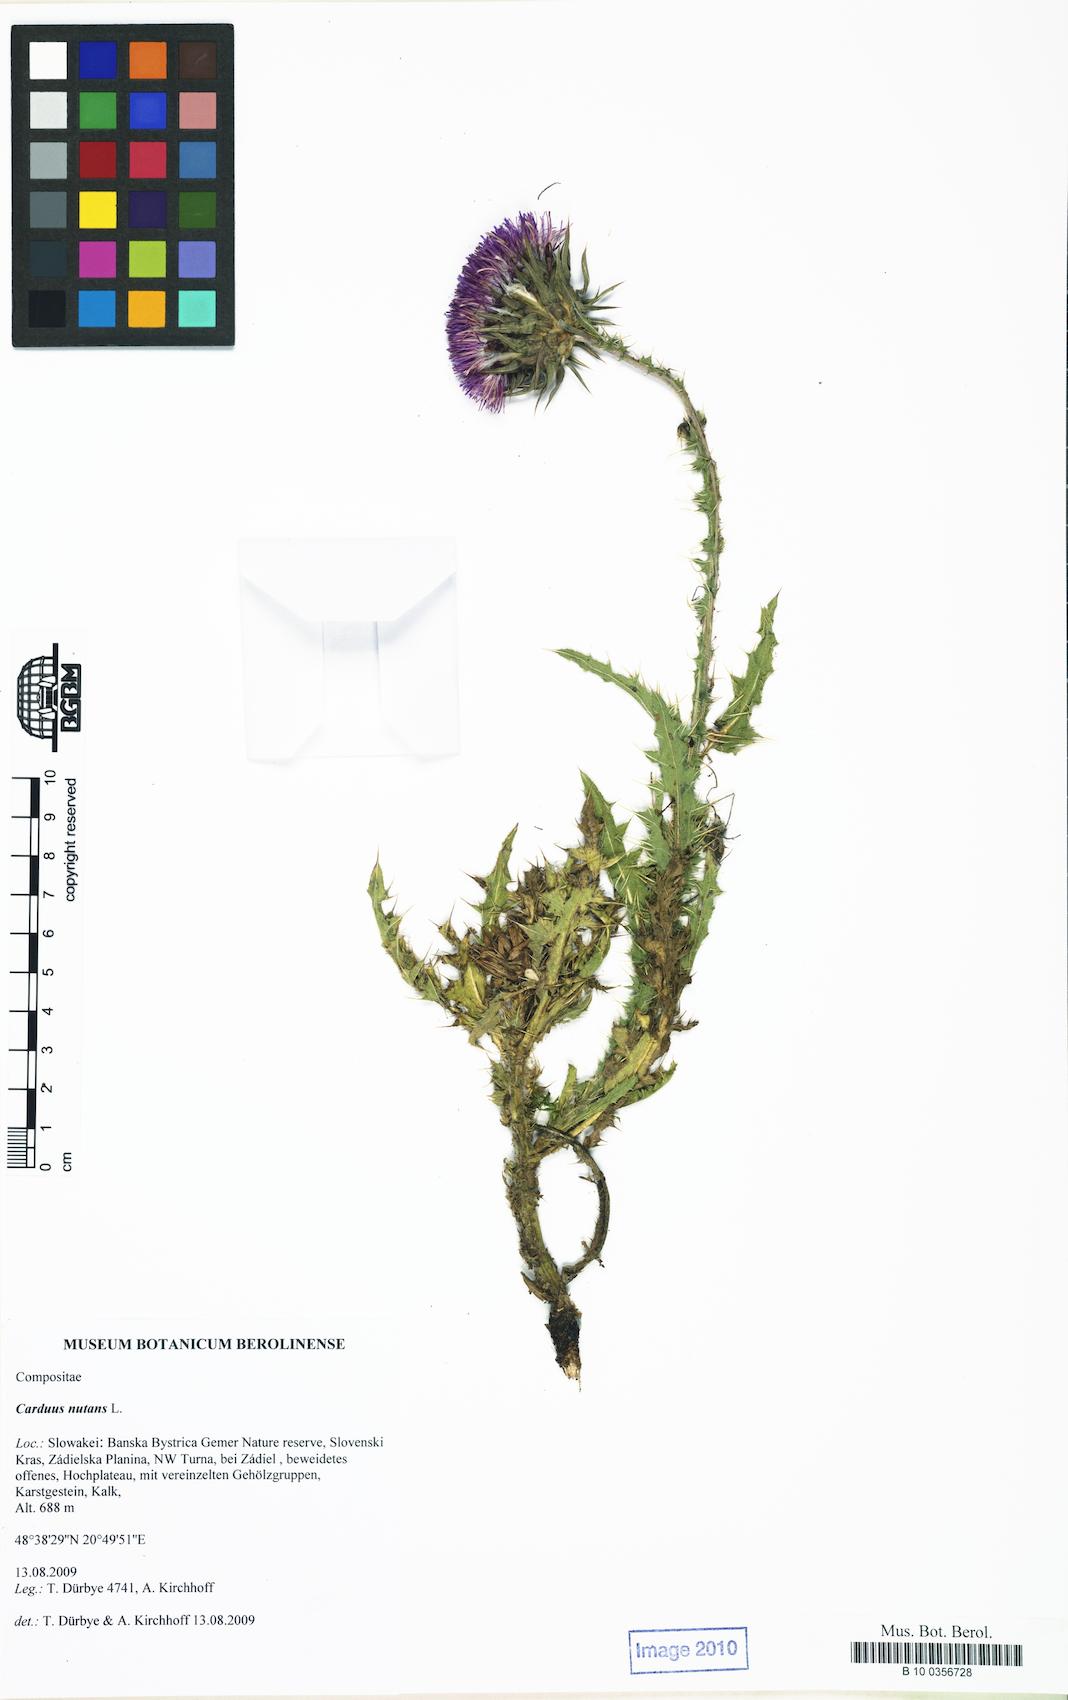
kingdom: Plantae
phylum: Tracheophyta
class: Magnoliopsida
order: Asterales
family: Asteraceae
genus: Carduus
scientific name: Carduus nutans
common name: Musk thistle
